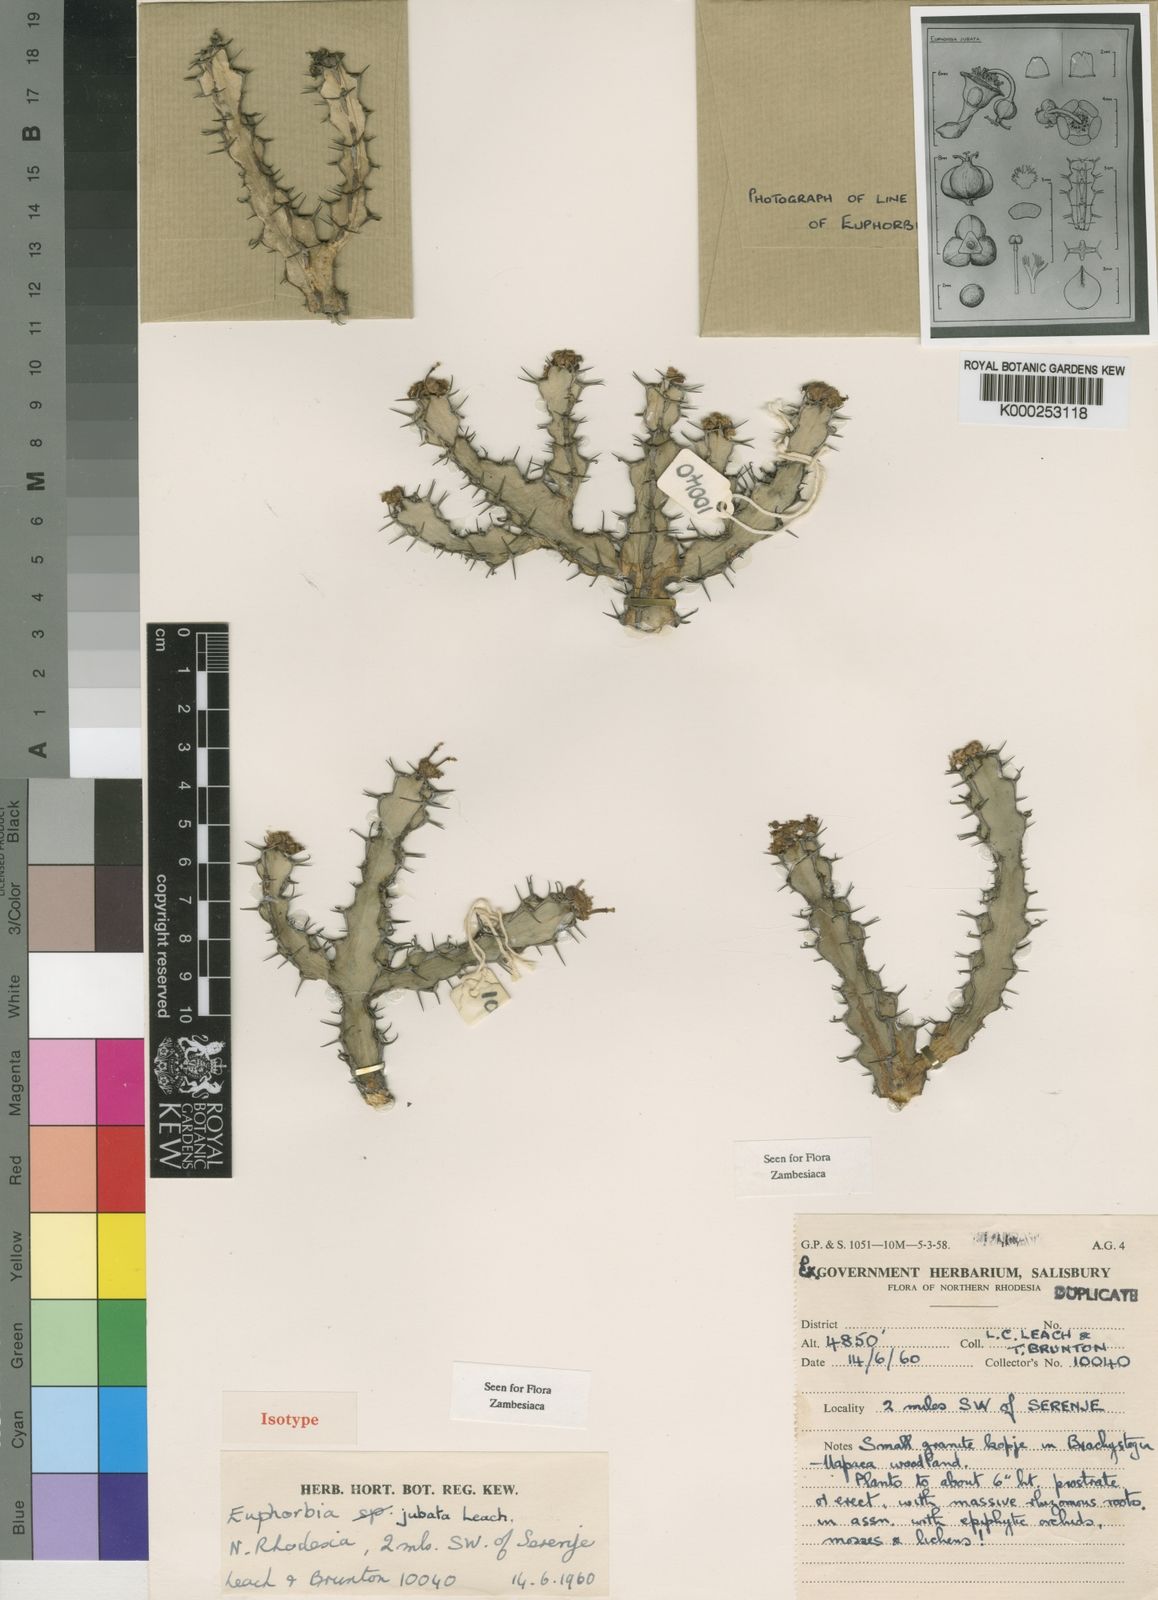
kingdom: Plantae
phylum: Tracheophyta
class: Magnoliopsida
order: Malpighiales
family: Euphorbiaceae
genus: Euphorbia
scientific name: Euphorbia jubata
